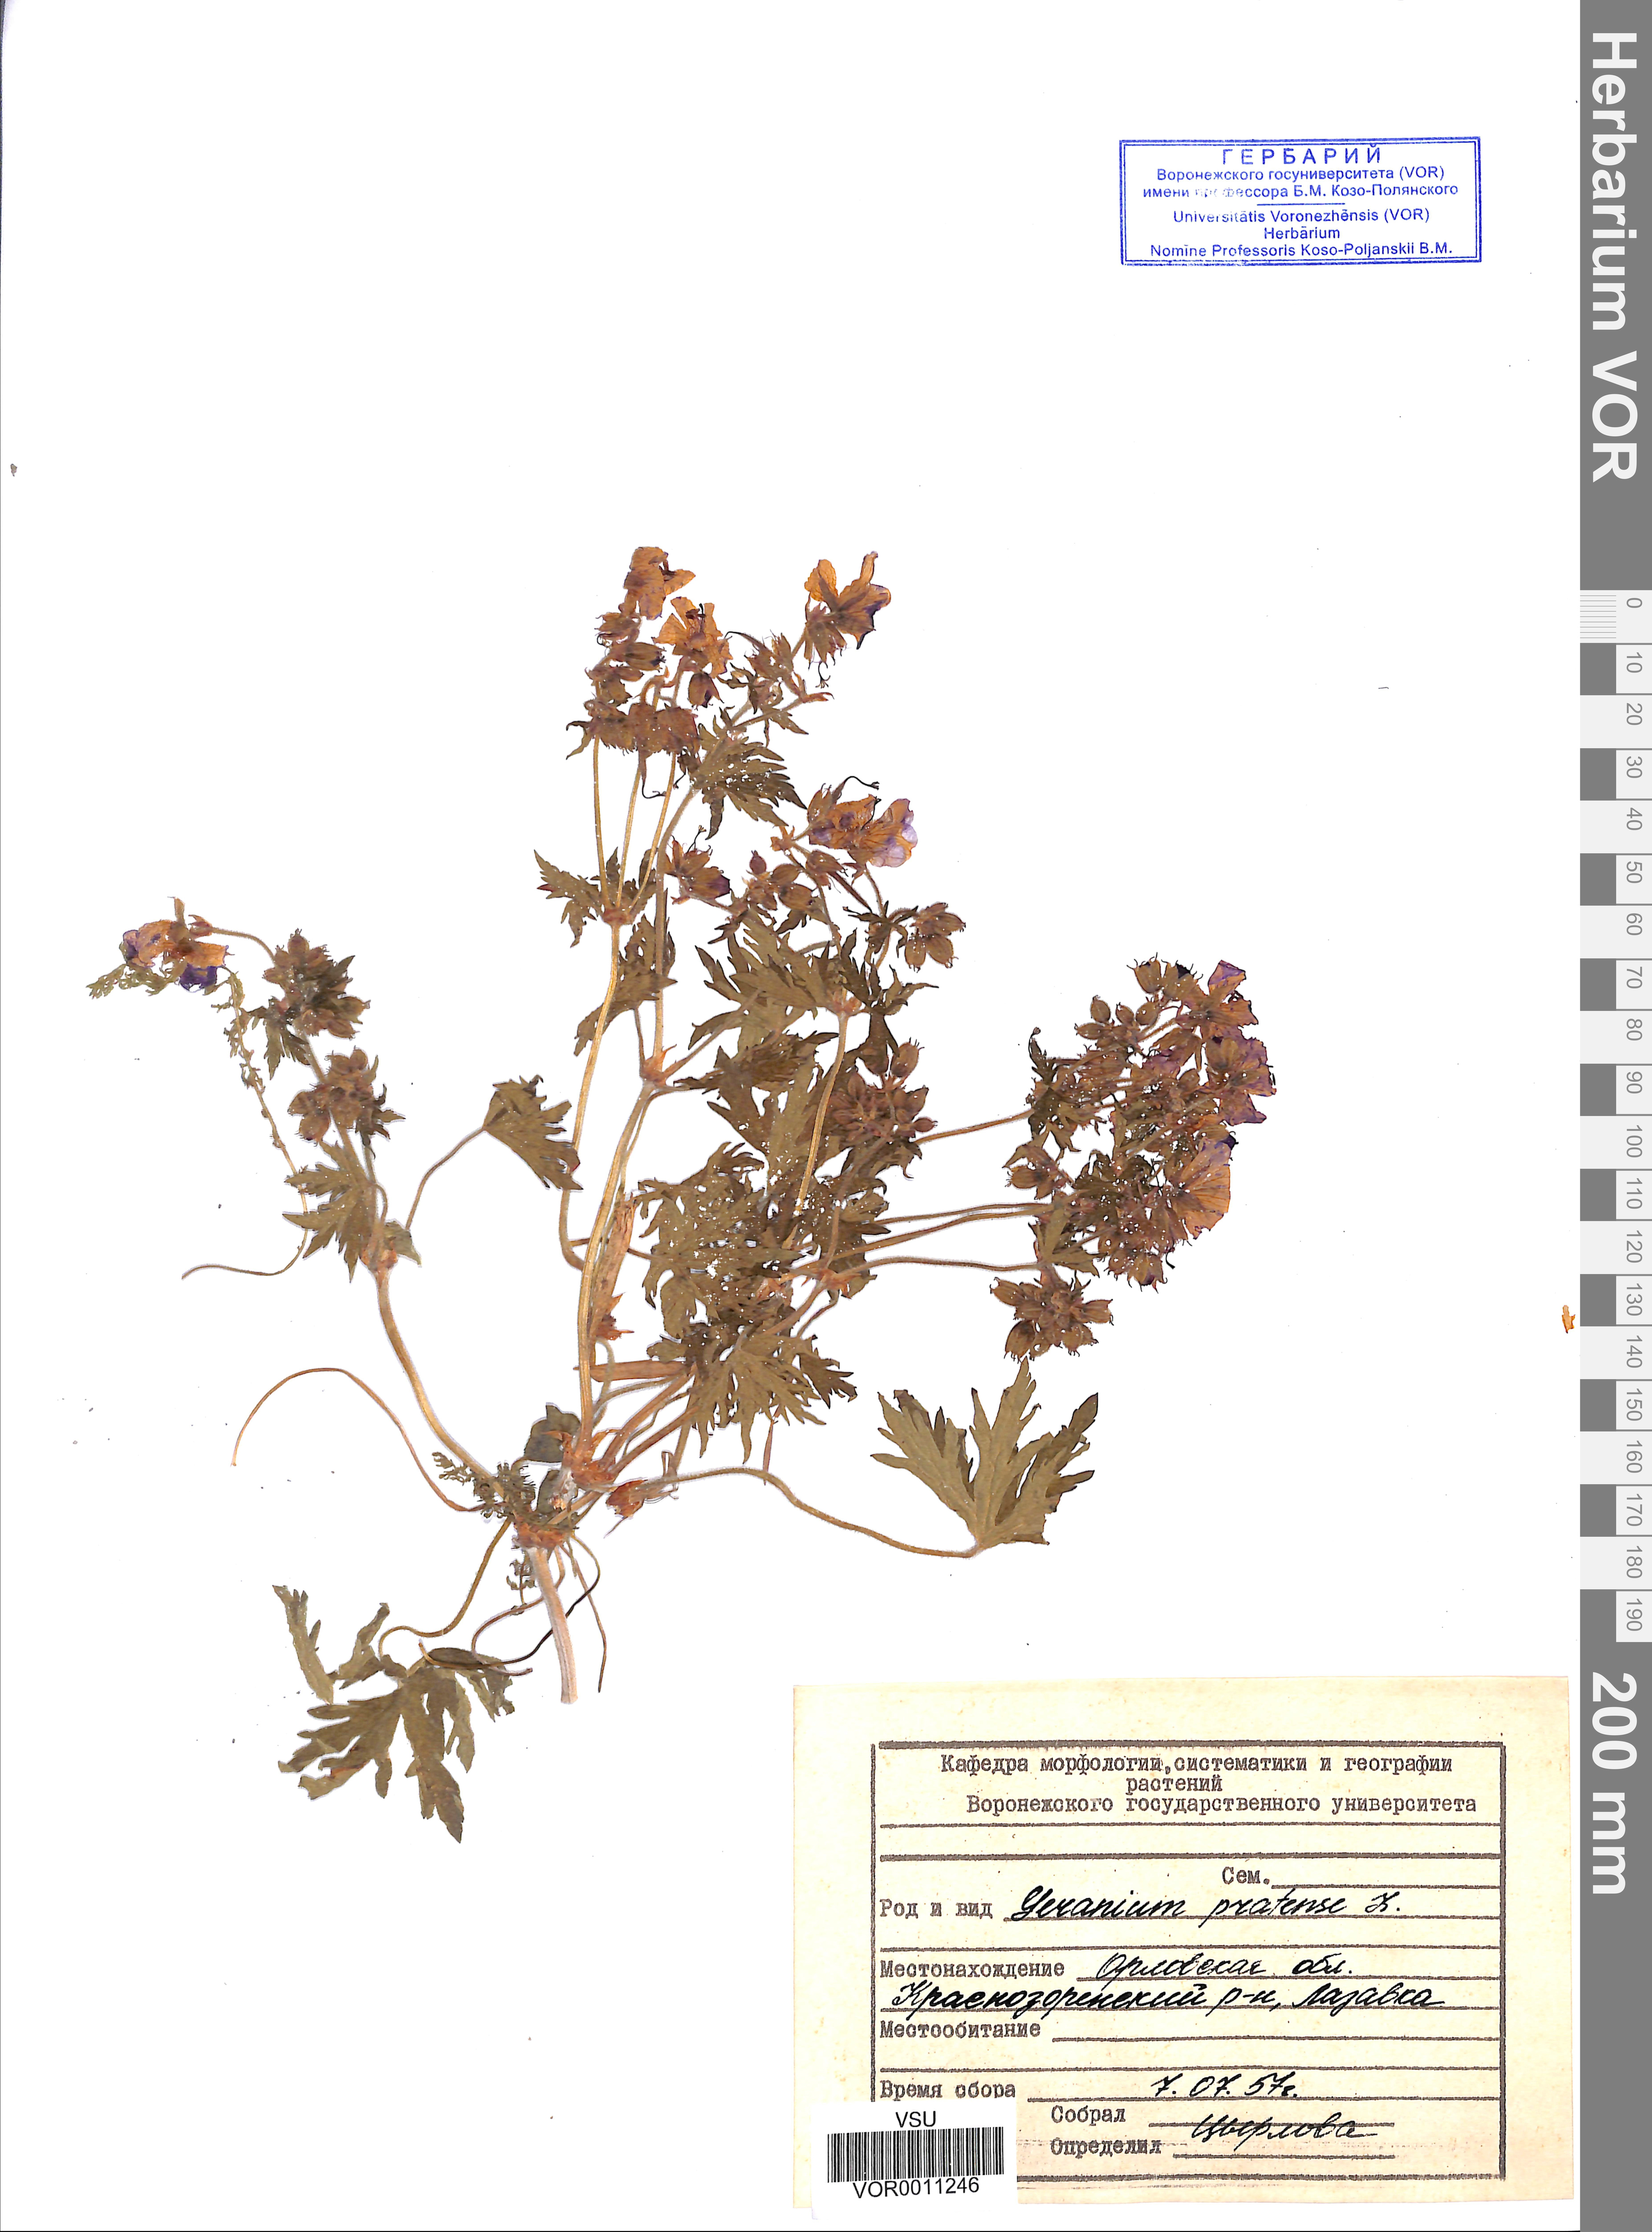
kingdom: Plantae
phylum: Tracheophyta
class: Magnoliopsida
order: Geraniales
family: Geraniaceae
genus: Geranium
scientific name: Geranium pratense
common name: Meadow crane's-bill
